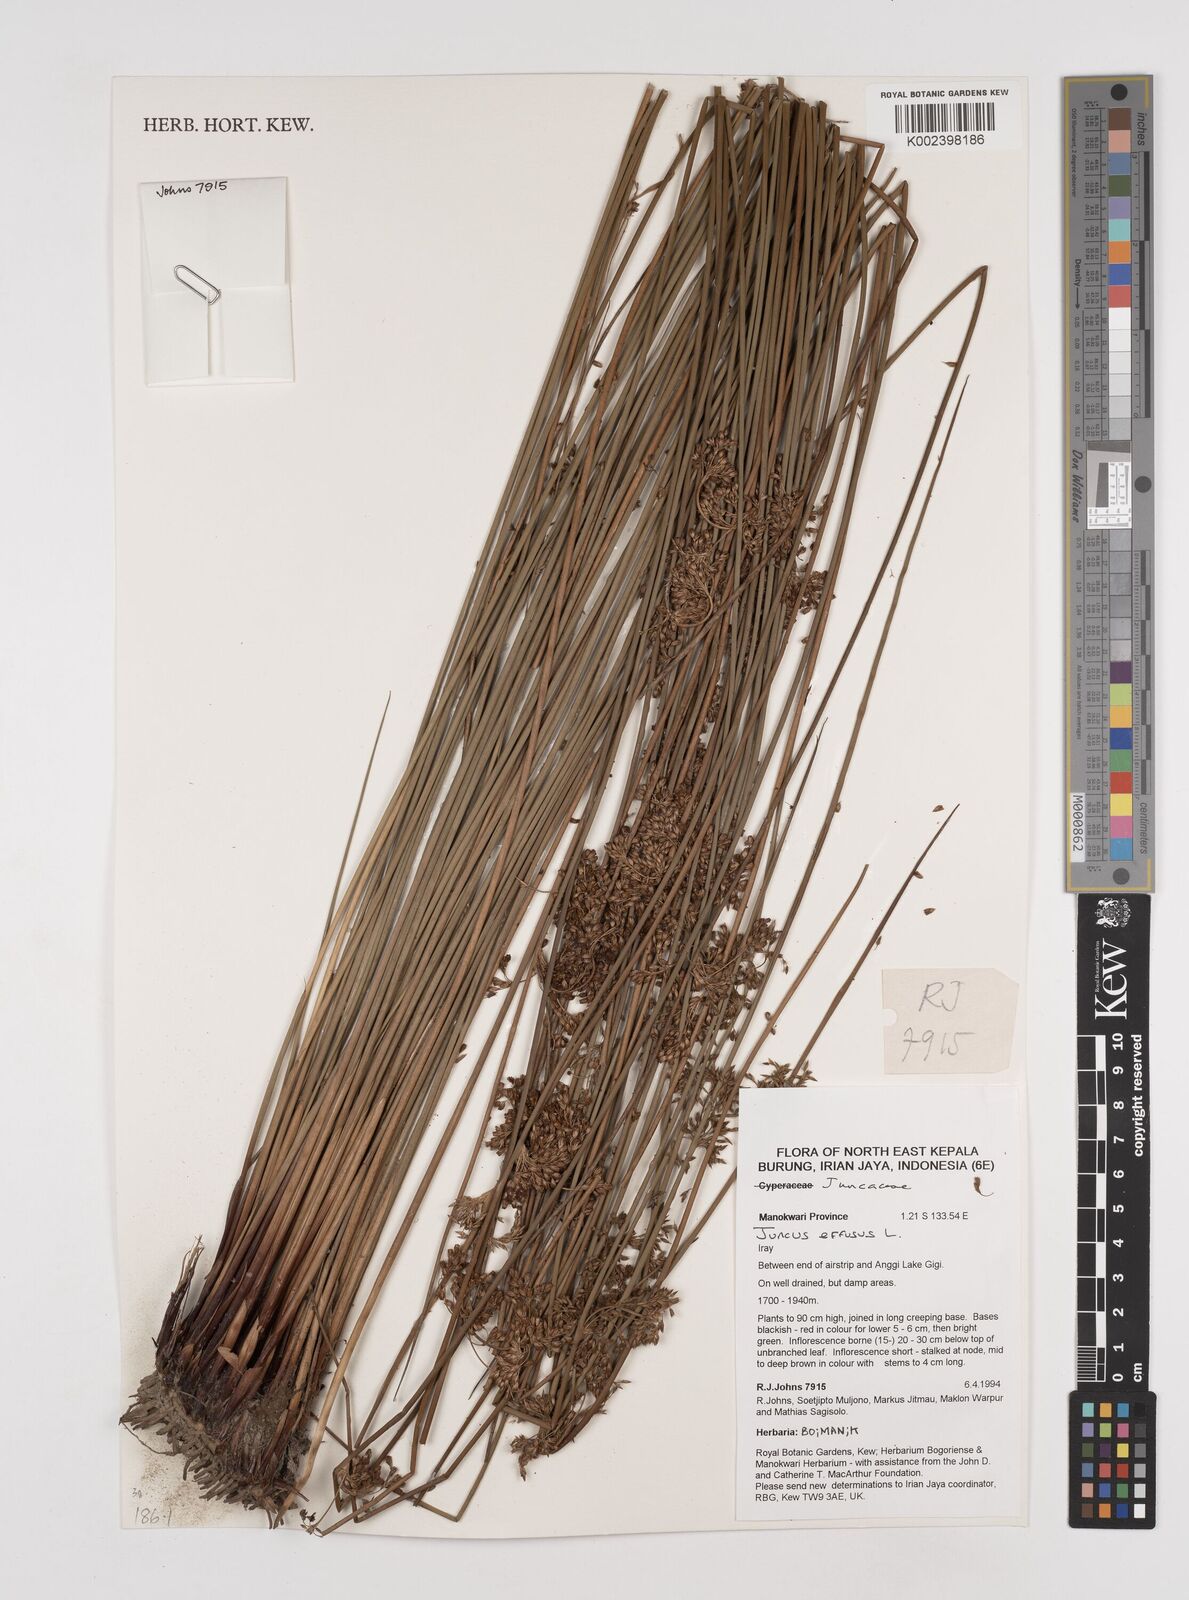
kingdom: Plantae
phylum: Tracheophyta
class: Liliopsida
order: Poales
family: Juncaceae
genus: Juncus
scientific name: Juncus decipiens
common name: Lamp rush
